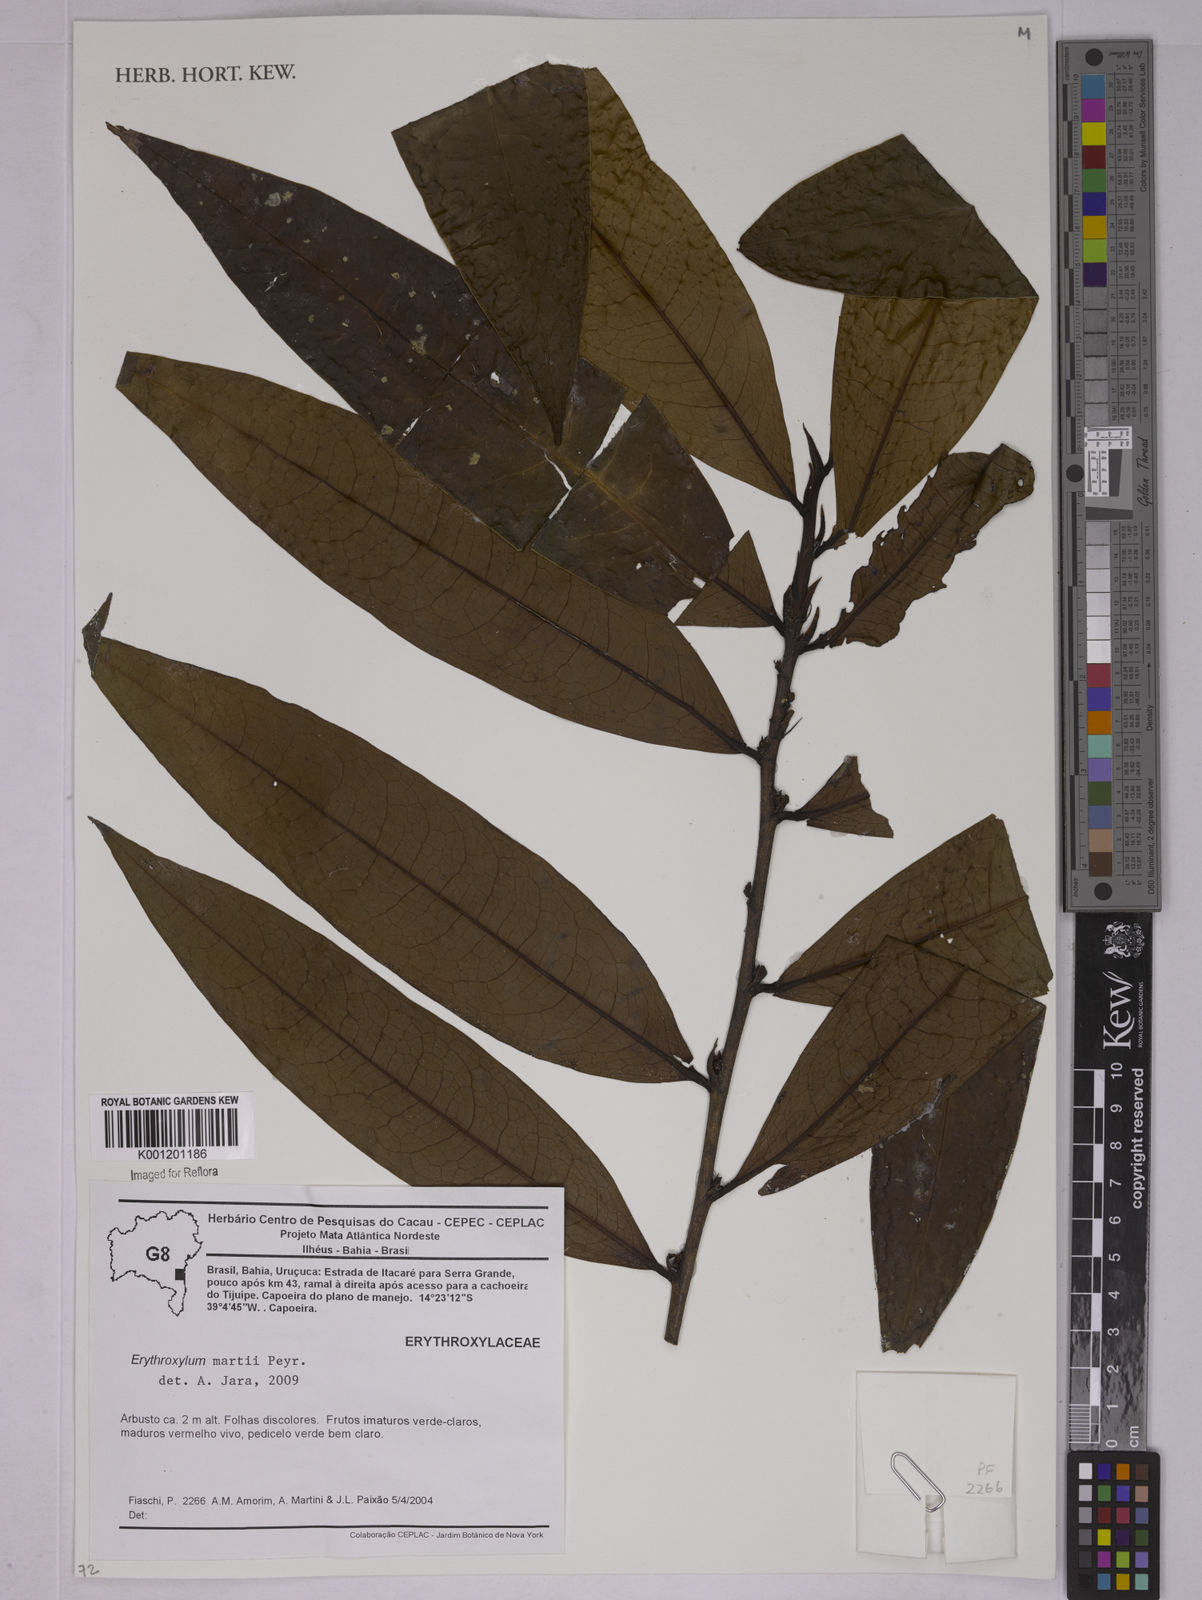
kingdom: Plantae
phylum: Tracheophyta
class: Magnoliopsida
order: Malpighiales
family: Erythroxylaceae
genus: Erythroxylum
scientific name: Erythroxylum martii
